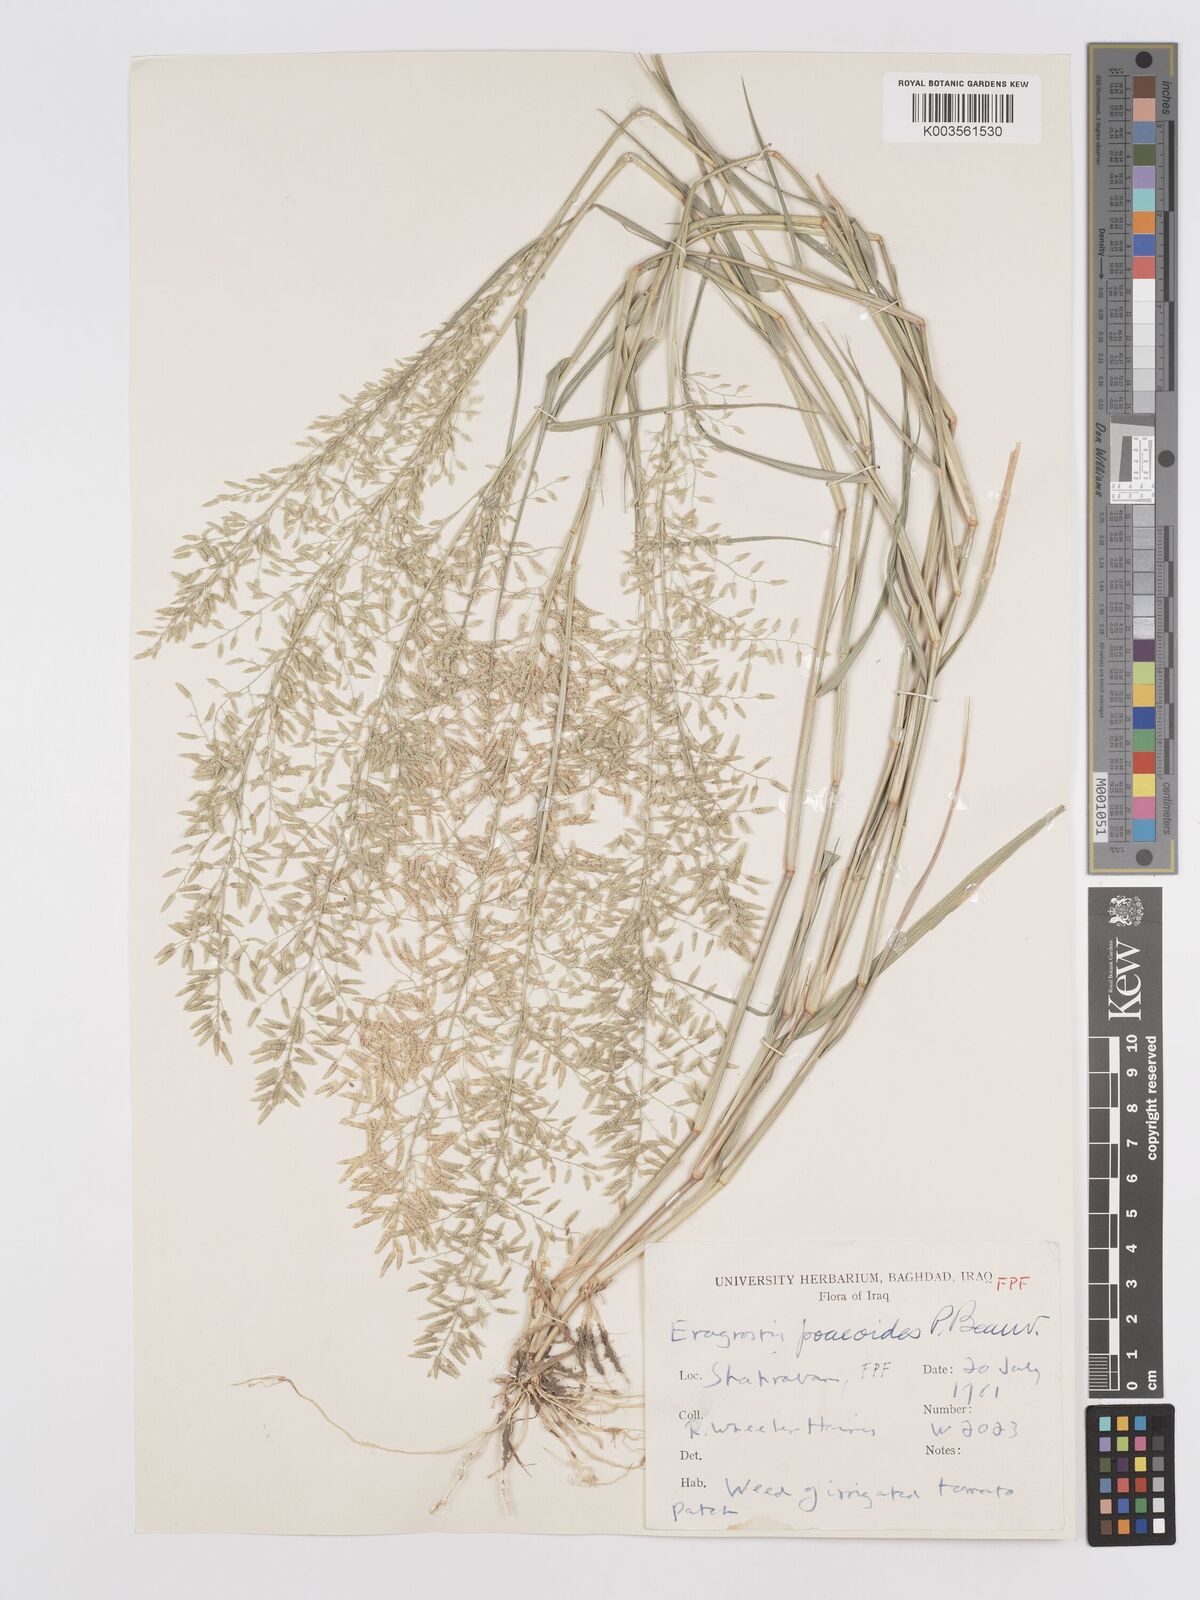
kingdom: Plantae
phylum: Tracheophyta
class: Liliopsida
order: Poales
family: Poaceae
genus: Eragrostis
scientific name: Eragrostis minor
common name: Small love-grass
